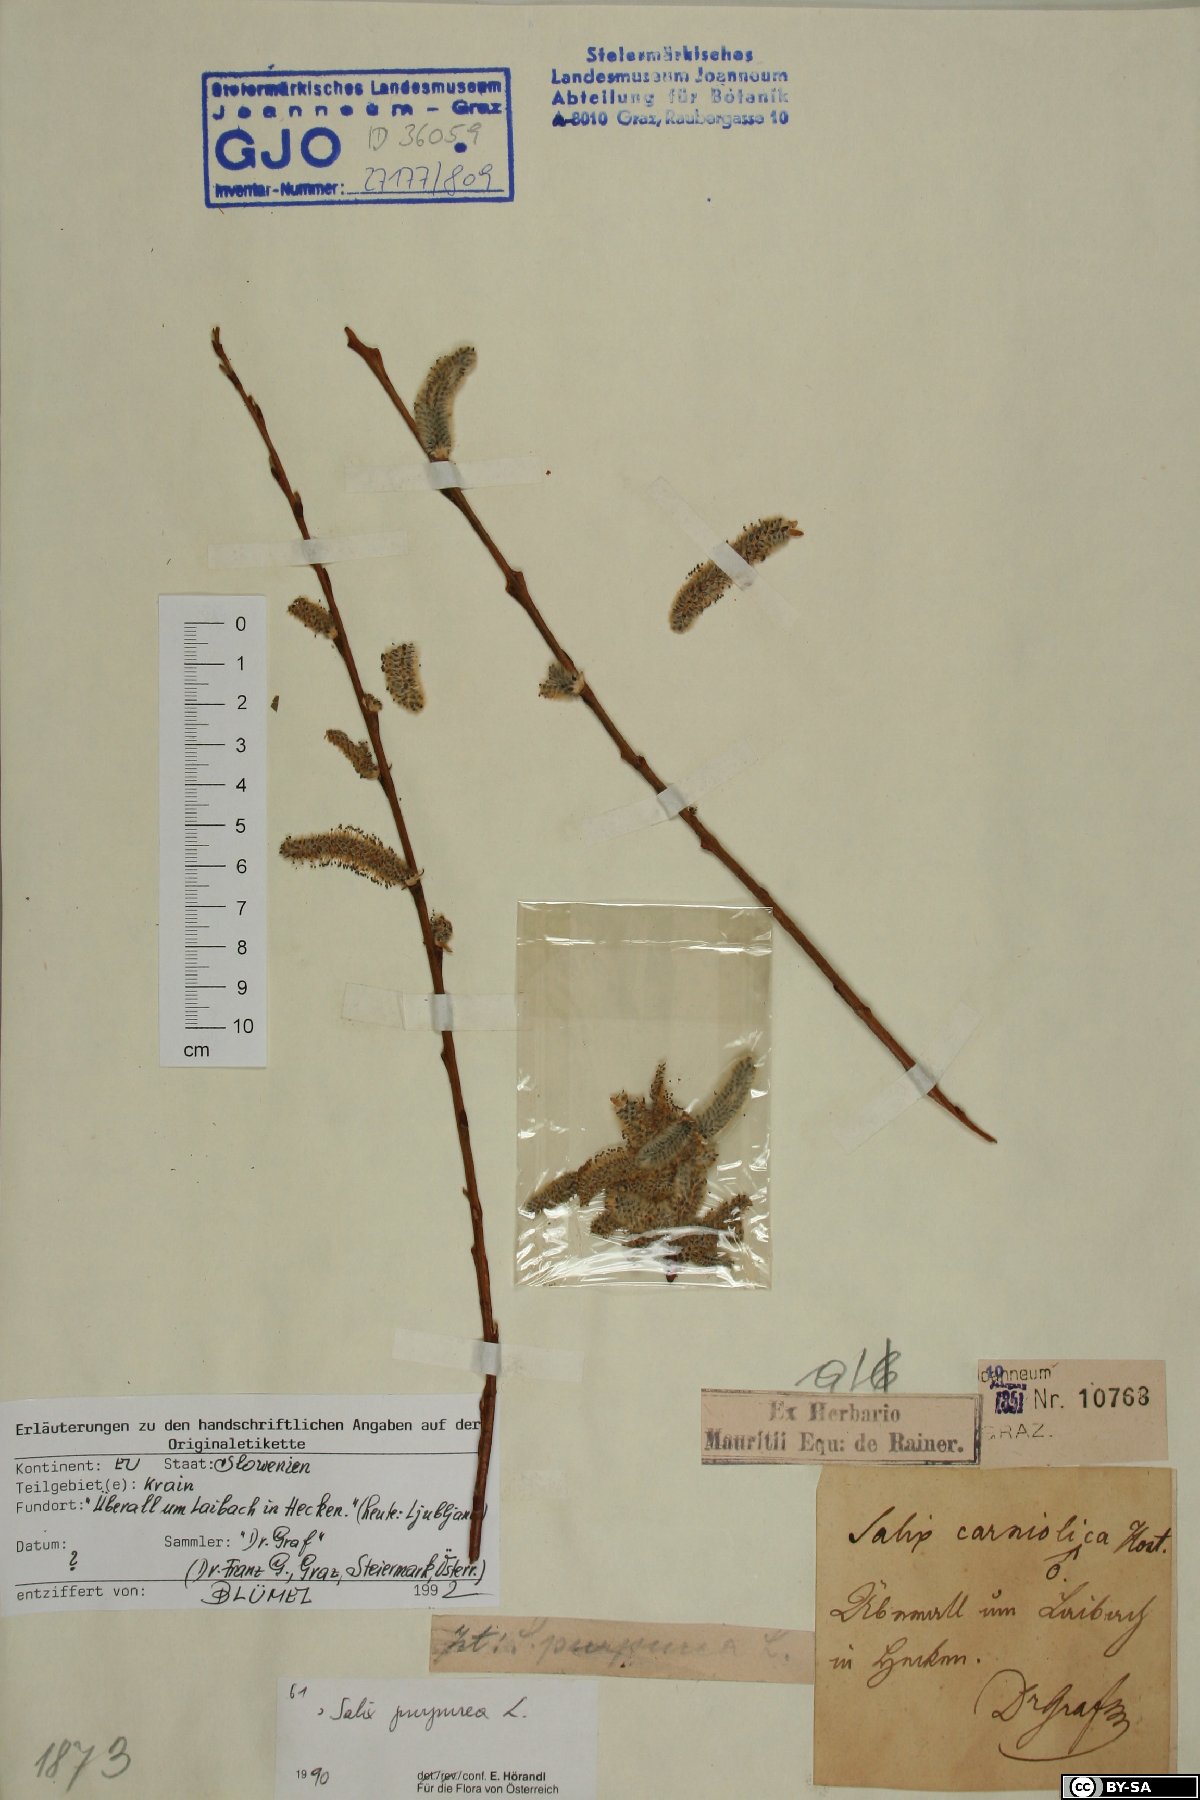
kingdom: Plantae
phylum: Tracheophyta
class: Magnoliopsida
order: Malpighiales
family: Salicaceae
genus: Salix
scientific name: Salix purpurea
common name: Purple willow
